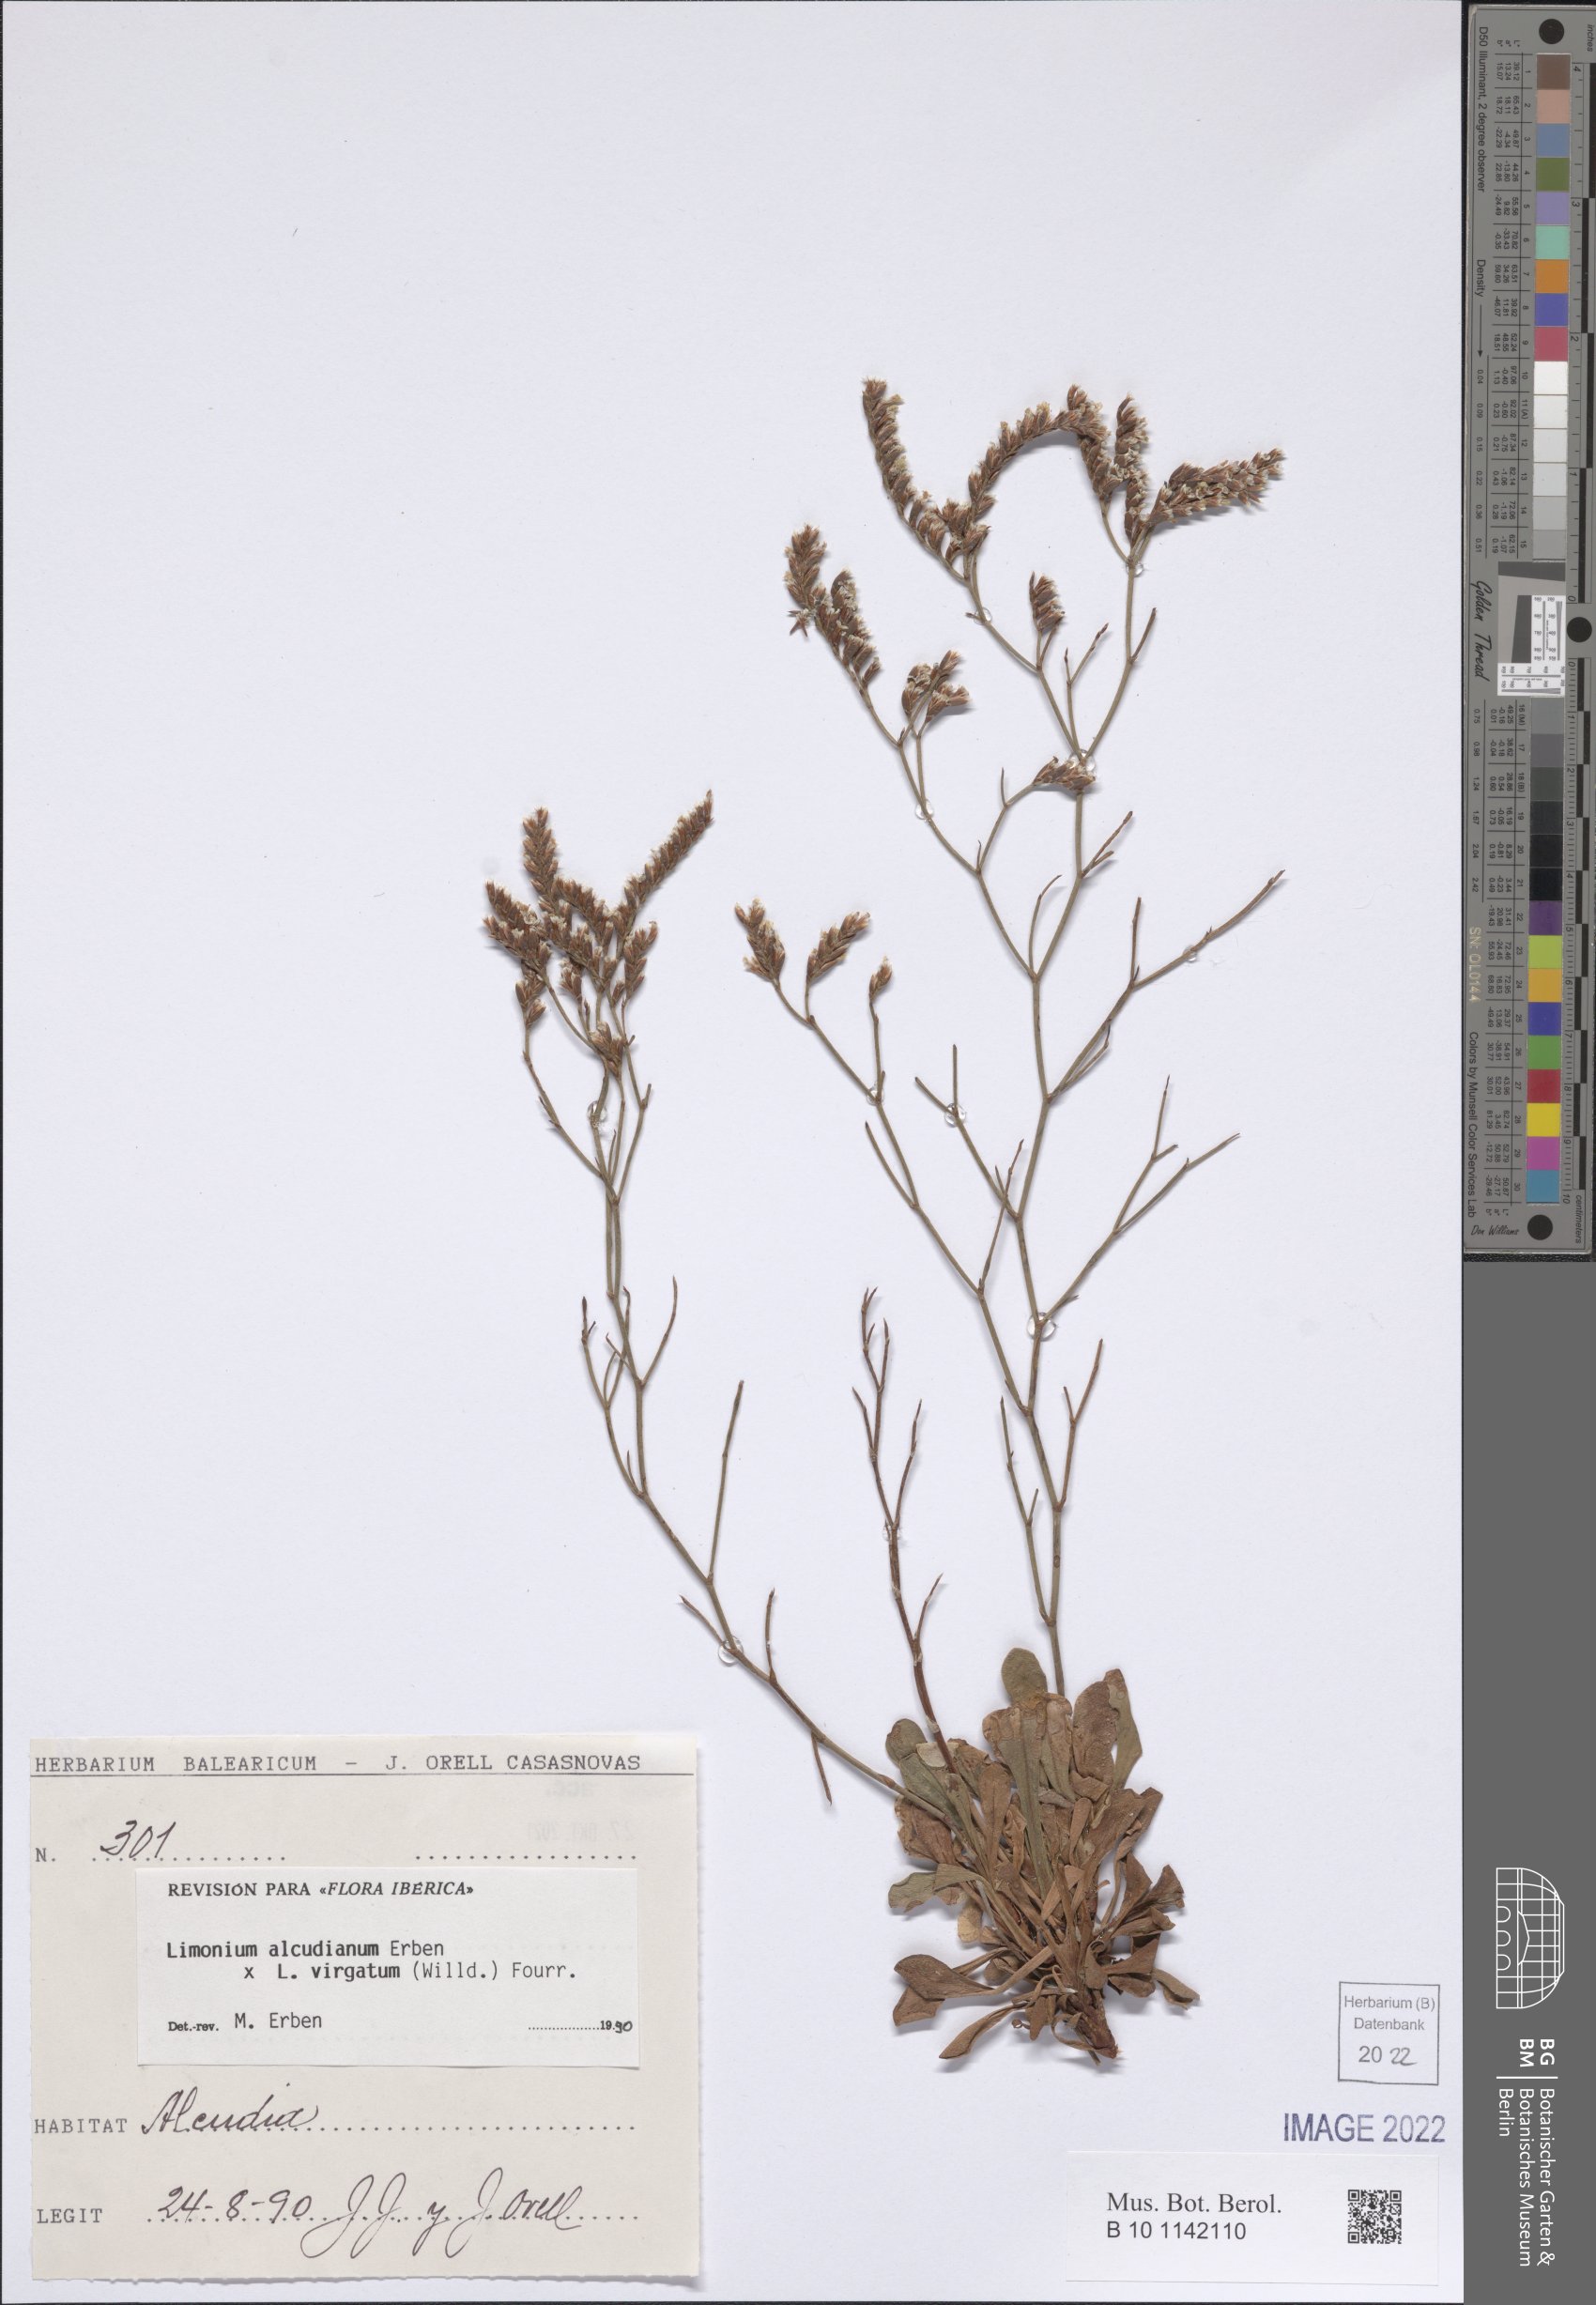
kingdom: Plantae
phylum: Tracheophyta
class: Magnoliopsida
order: Caryophyllales
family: Plumbaginaceae
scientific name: Plumbaginaceae
